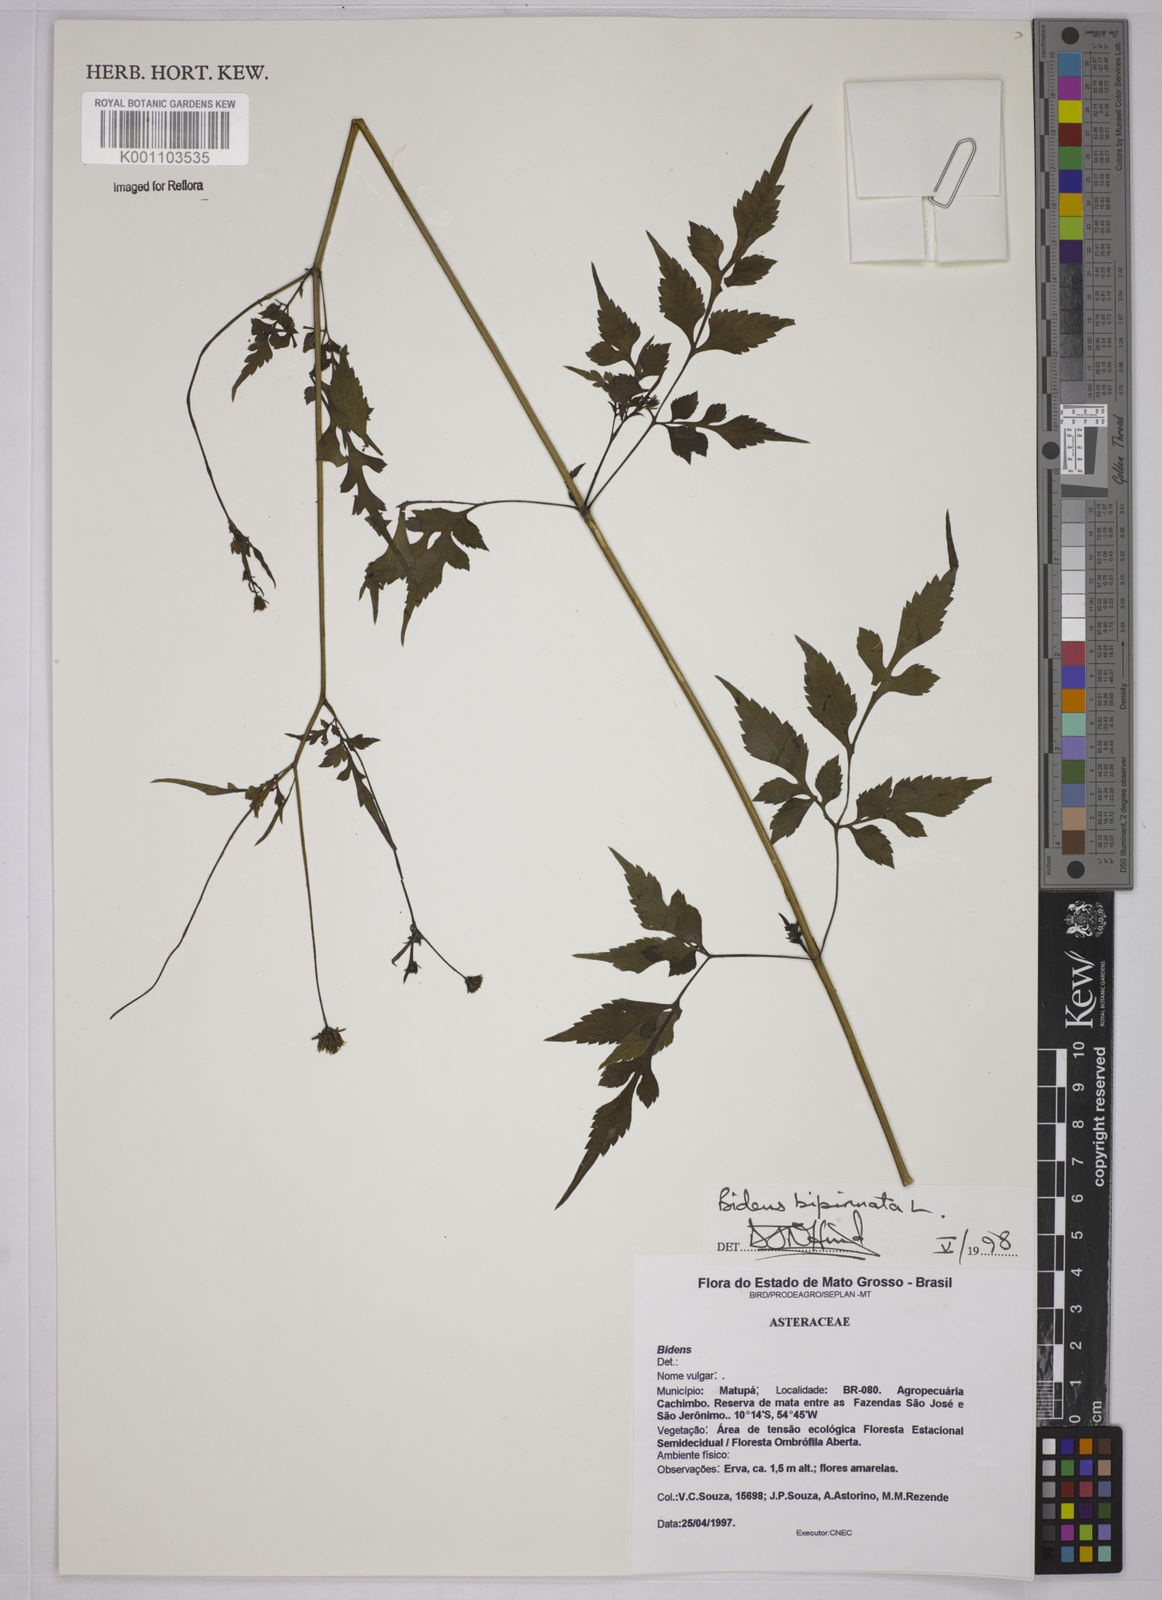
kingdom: Plantae
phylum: Tracheophyta
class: Magnoliopsida
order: Asterales
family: Asteraceae
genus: Bidens
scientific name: Bidens bipinnata
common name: Spanish-needles
